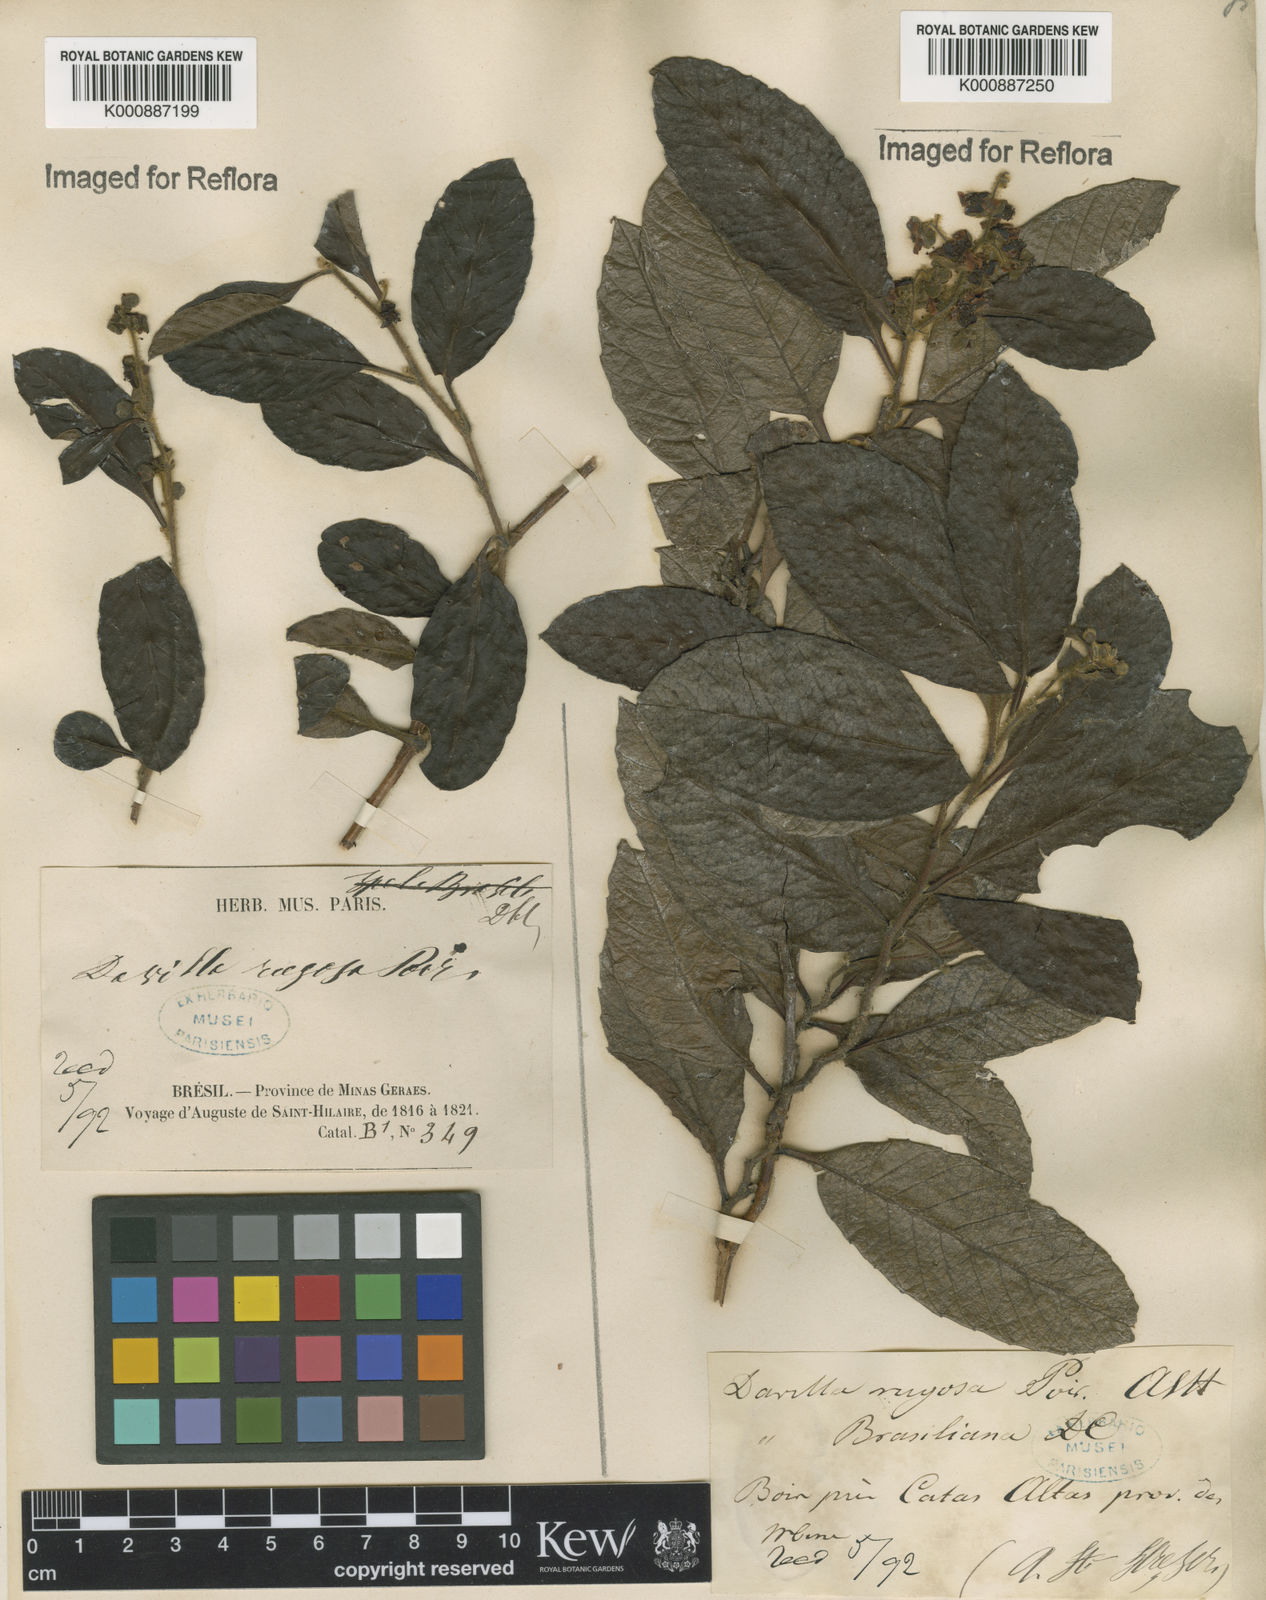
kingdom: Plantae
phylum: Tracheophyta
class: Magnoliopsida
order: Dilleniales
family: Dilleniaceae
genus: Davilla
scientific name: Davilla rugosa
